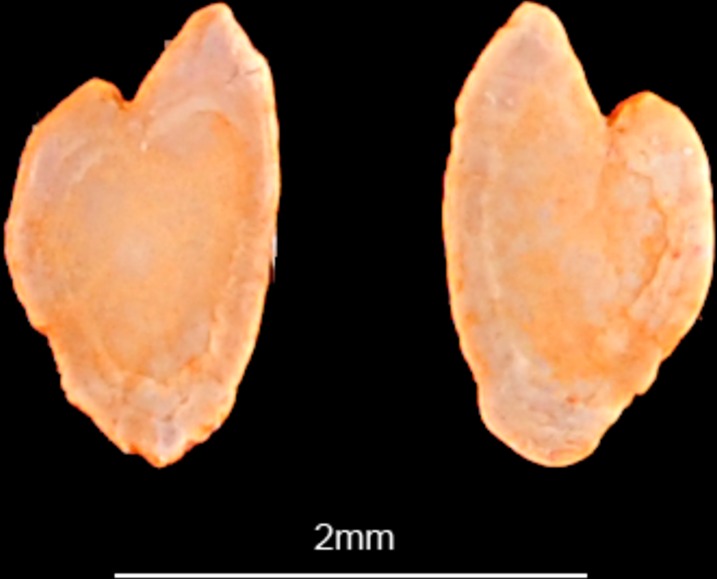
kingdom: Animalia
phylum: Chordata
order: Perciformes
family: Blenniidae
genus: Parablennius
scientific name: Parablennius sanguinolentus
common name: Black sea blenny
